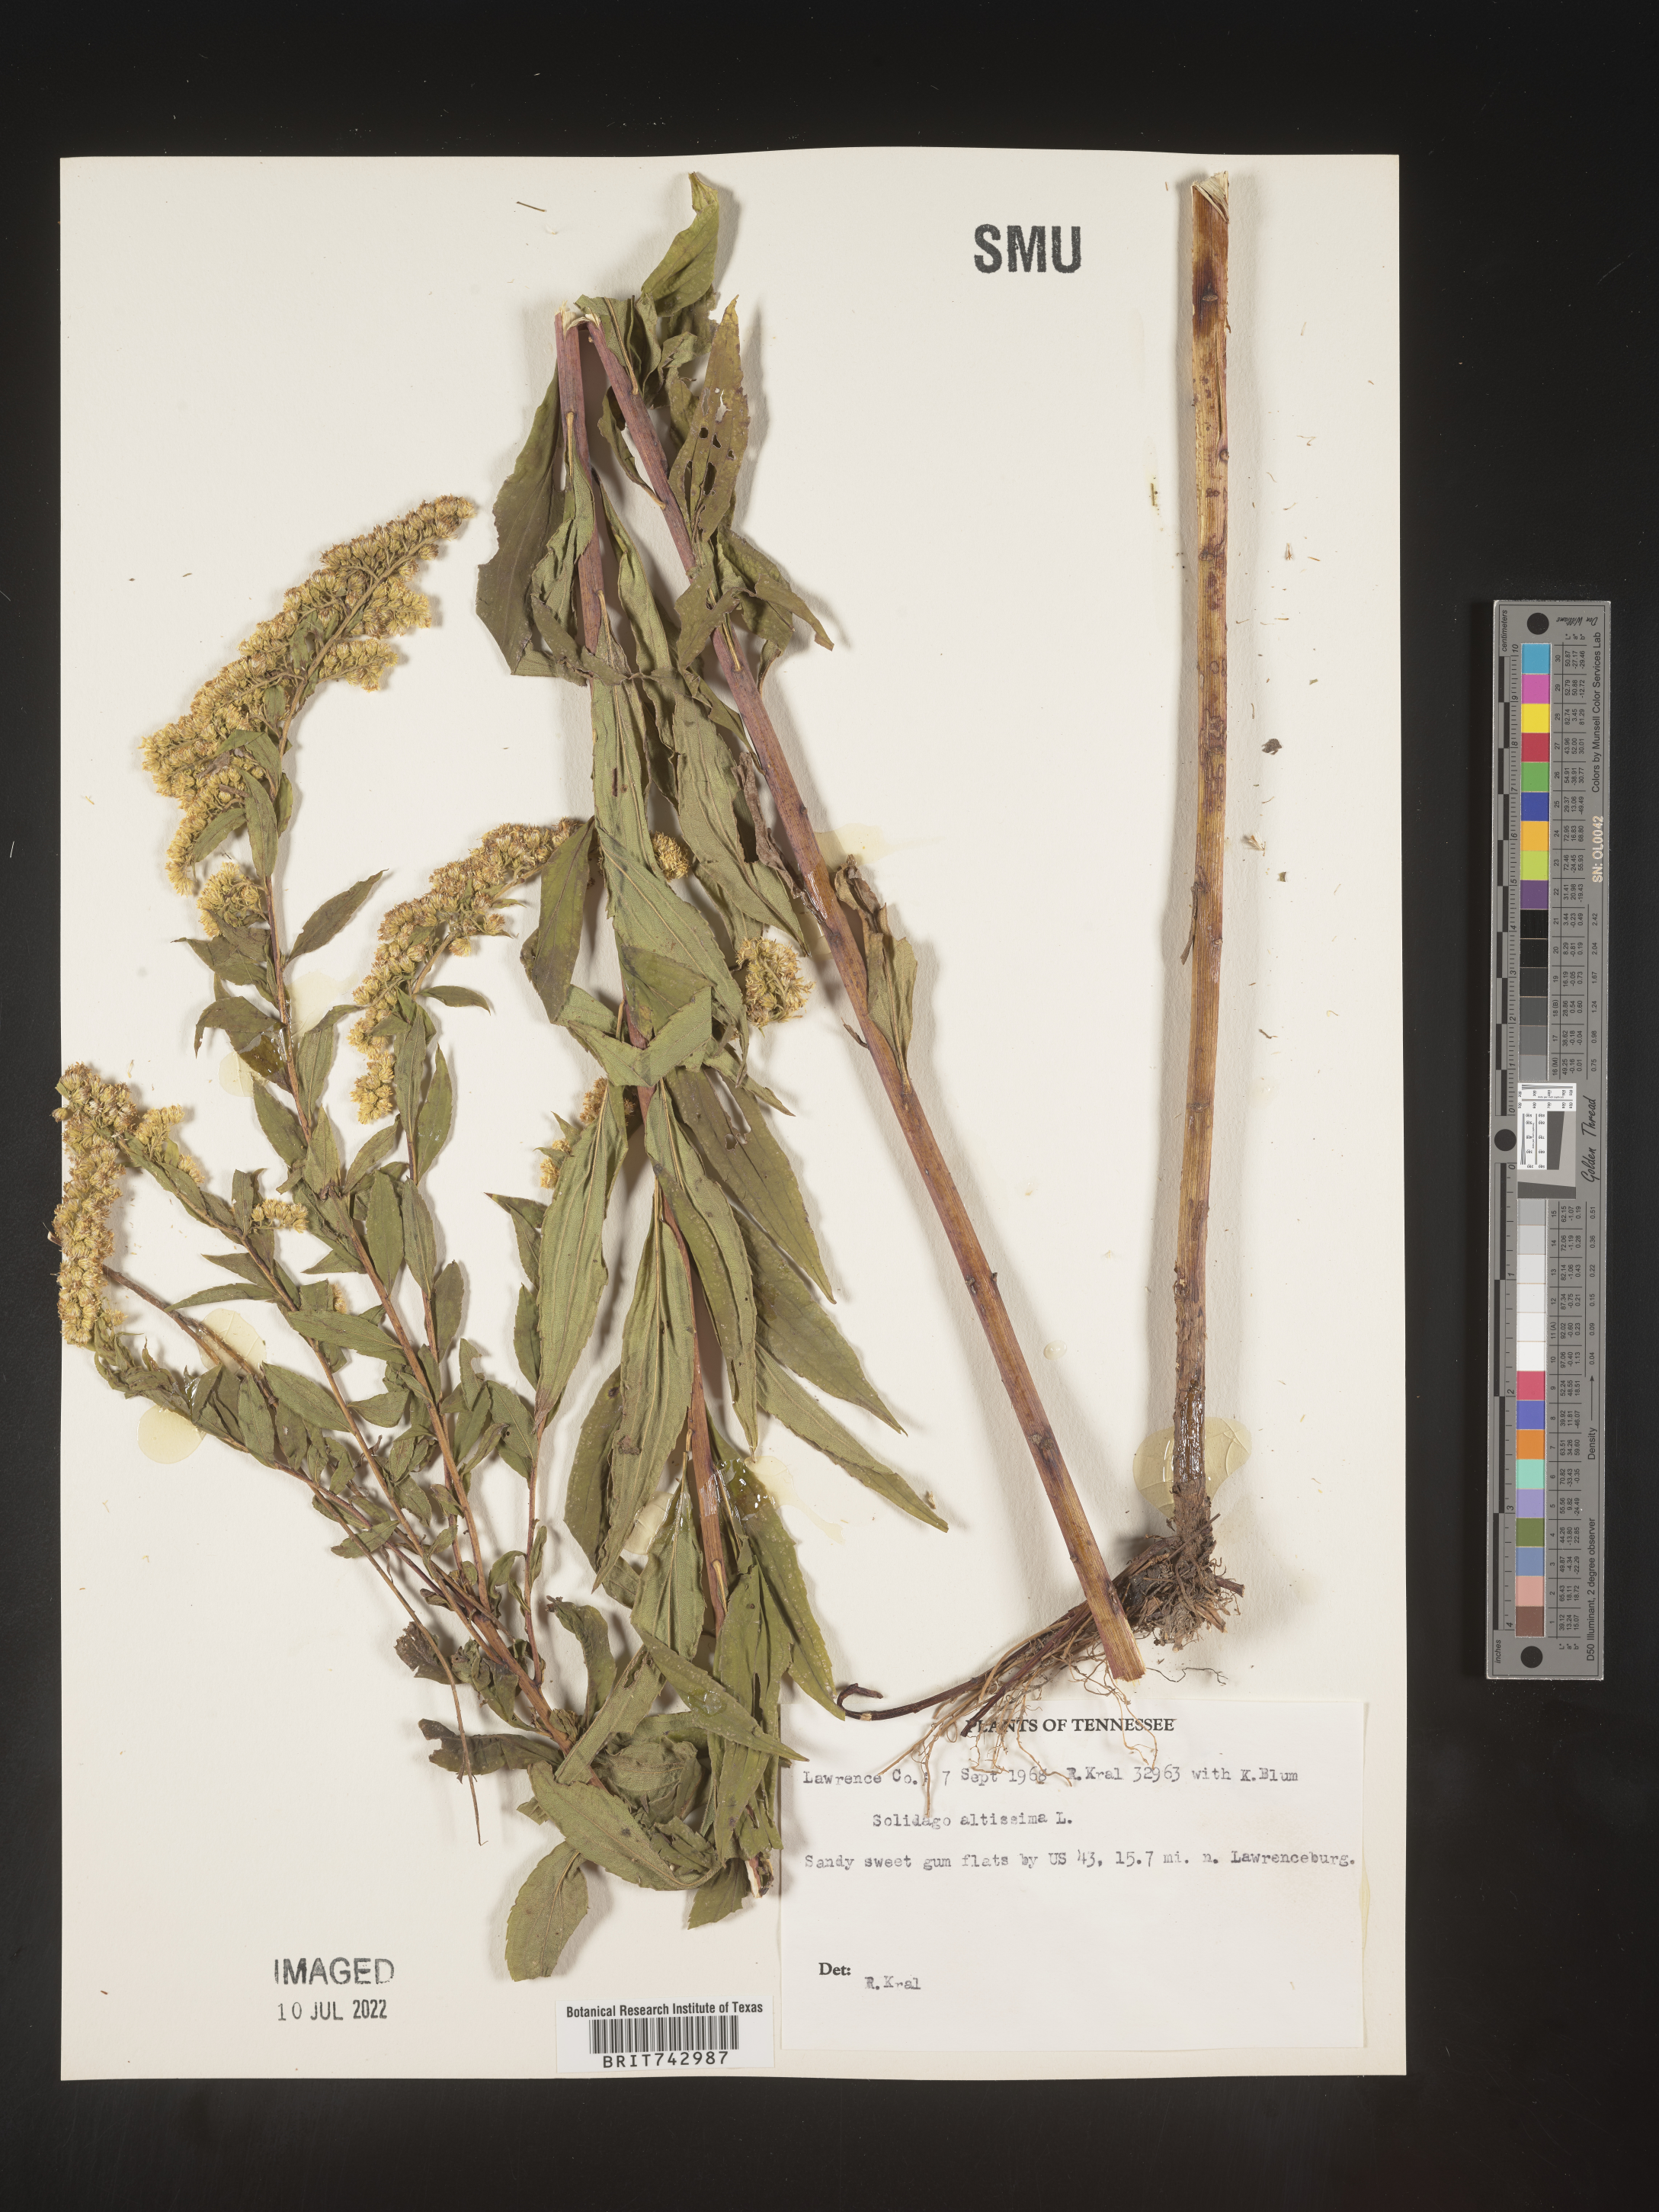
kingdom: Plantae
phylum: Tracheophyta
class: Magnoliopsida
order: Asterales
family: Asteraceae
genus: Solidago
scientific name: Solidago altissima
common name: Late goldenrod
